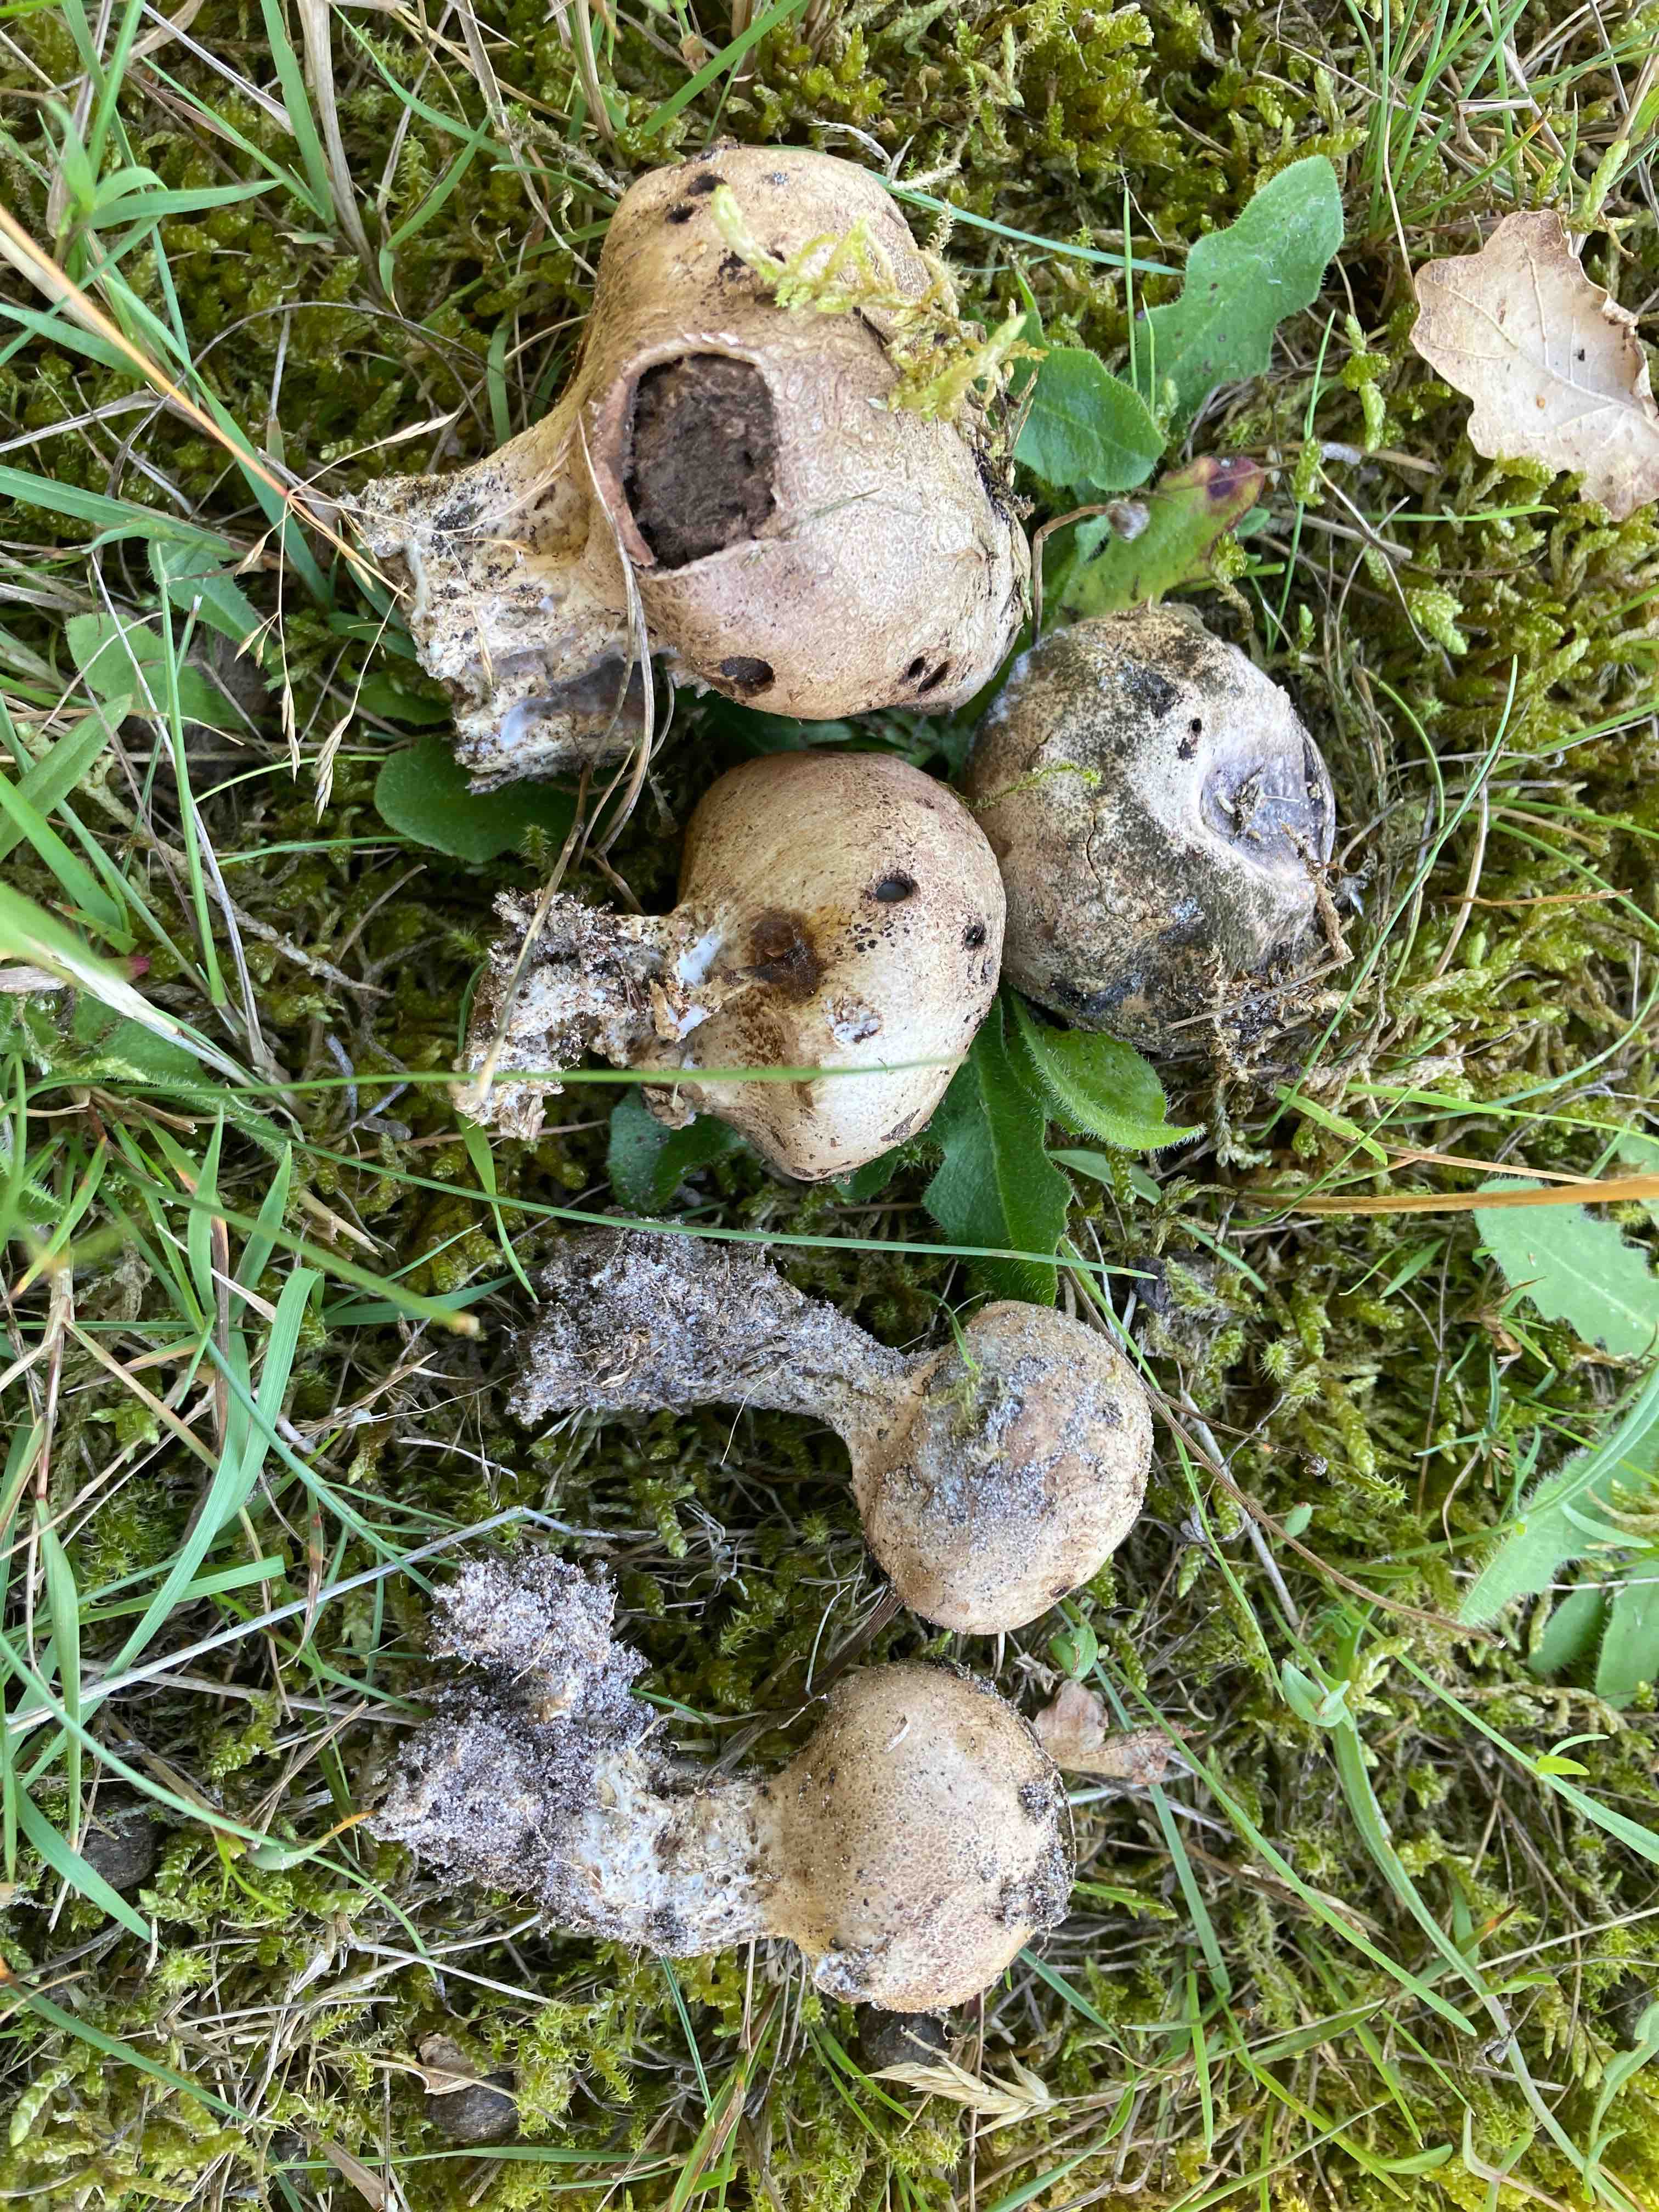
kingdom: Fungi
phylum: Basidiomycota
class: Agaricomycetes
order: Boletales
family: Sclerodermataceae
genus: Scleroderma
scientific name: Scleroderma verrucosum
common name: stilket bruskbold
